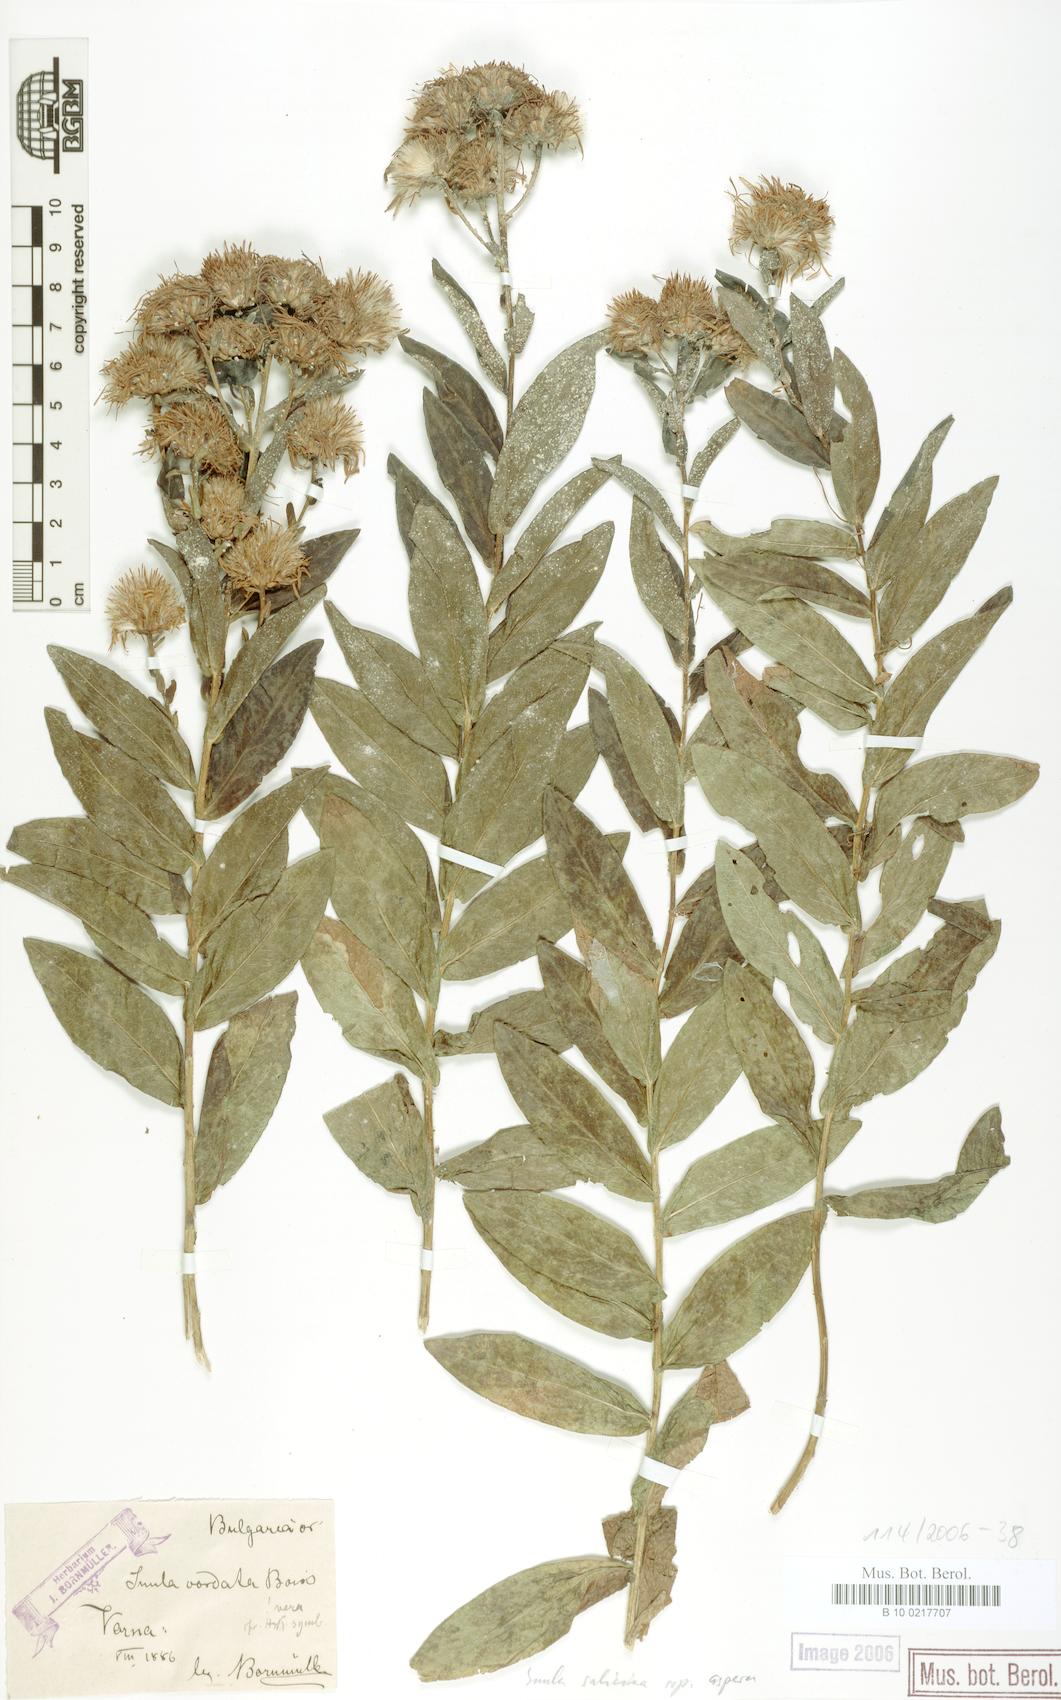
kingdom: Plantae
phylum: Tracheophyta
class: Magnoliopsida
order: Asterales
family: Asteraceae
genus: Pentanema
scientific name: Pentanema salicinum
